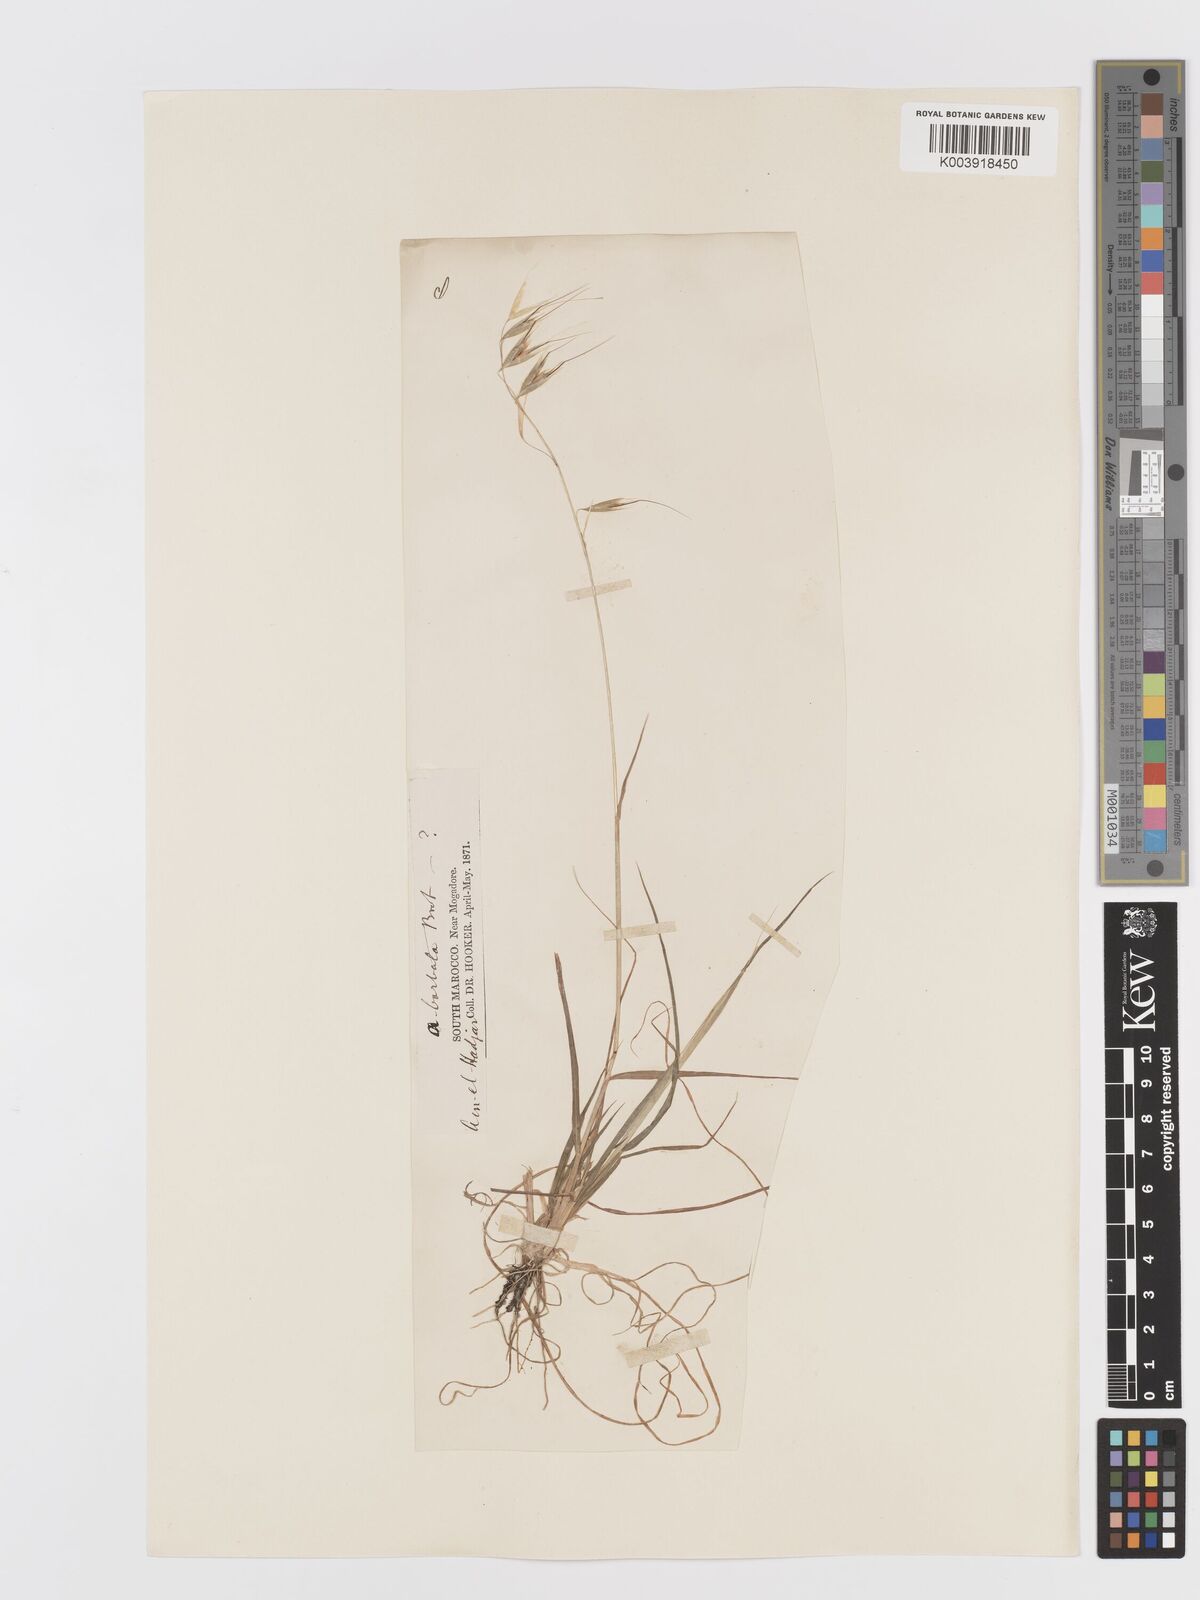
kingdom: Plantae
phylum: Tracheophyta
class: Liliopsida
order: Poales
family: Poaceae
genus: Avena
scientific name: Avena
